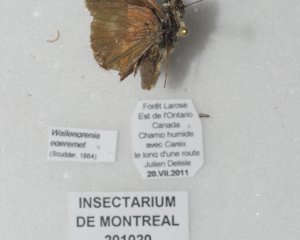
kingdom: Animalia
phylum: Arthropoda
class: Insecta
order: Lepidoptera
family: Hesperiidae
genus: Polites
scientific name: Polites egeremet
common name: Northern Broken-Dash
